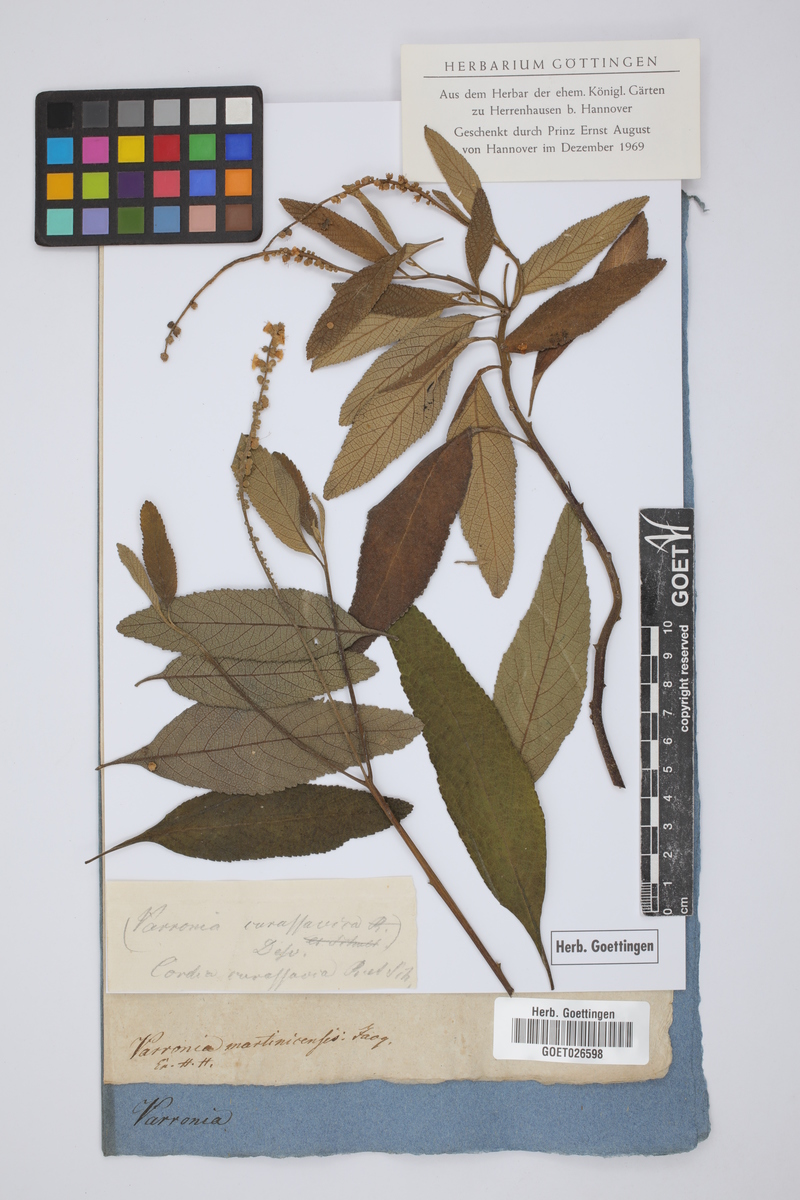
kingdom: Plantae
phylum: Tracheophyta
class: Magnoliopsida
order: Boraginales
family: Cordiaceae
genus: Varronia
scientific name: Varronia martinicensis
